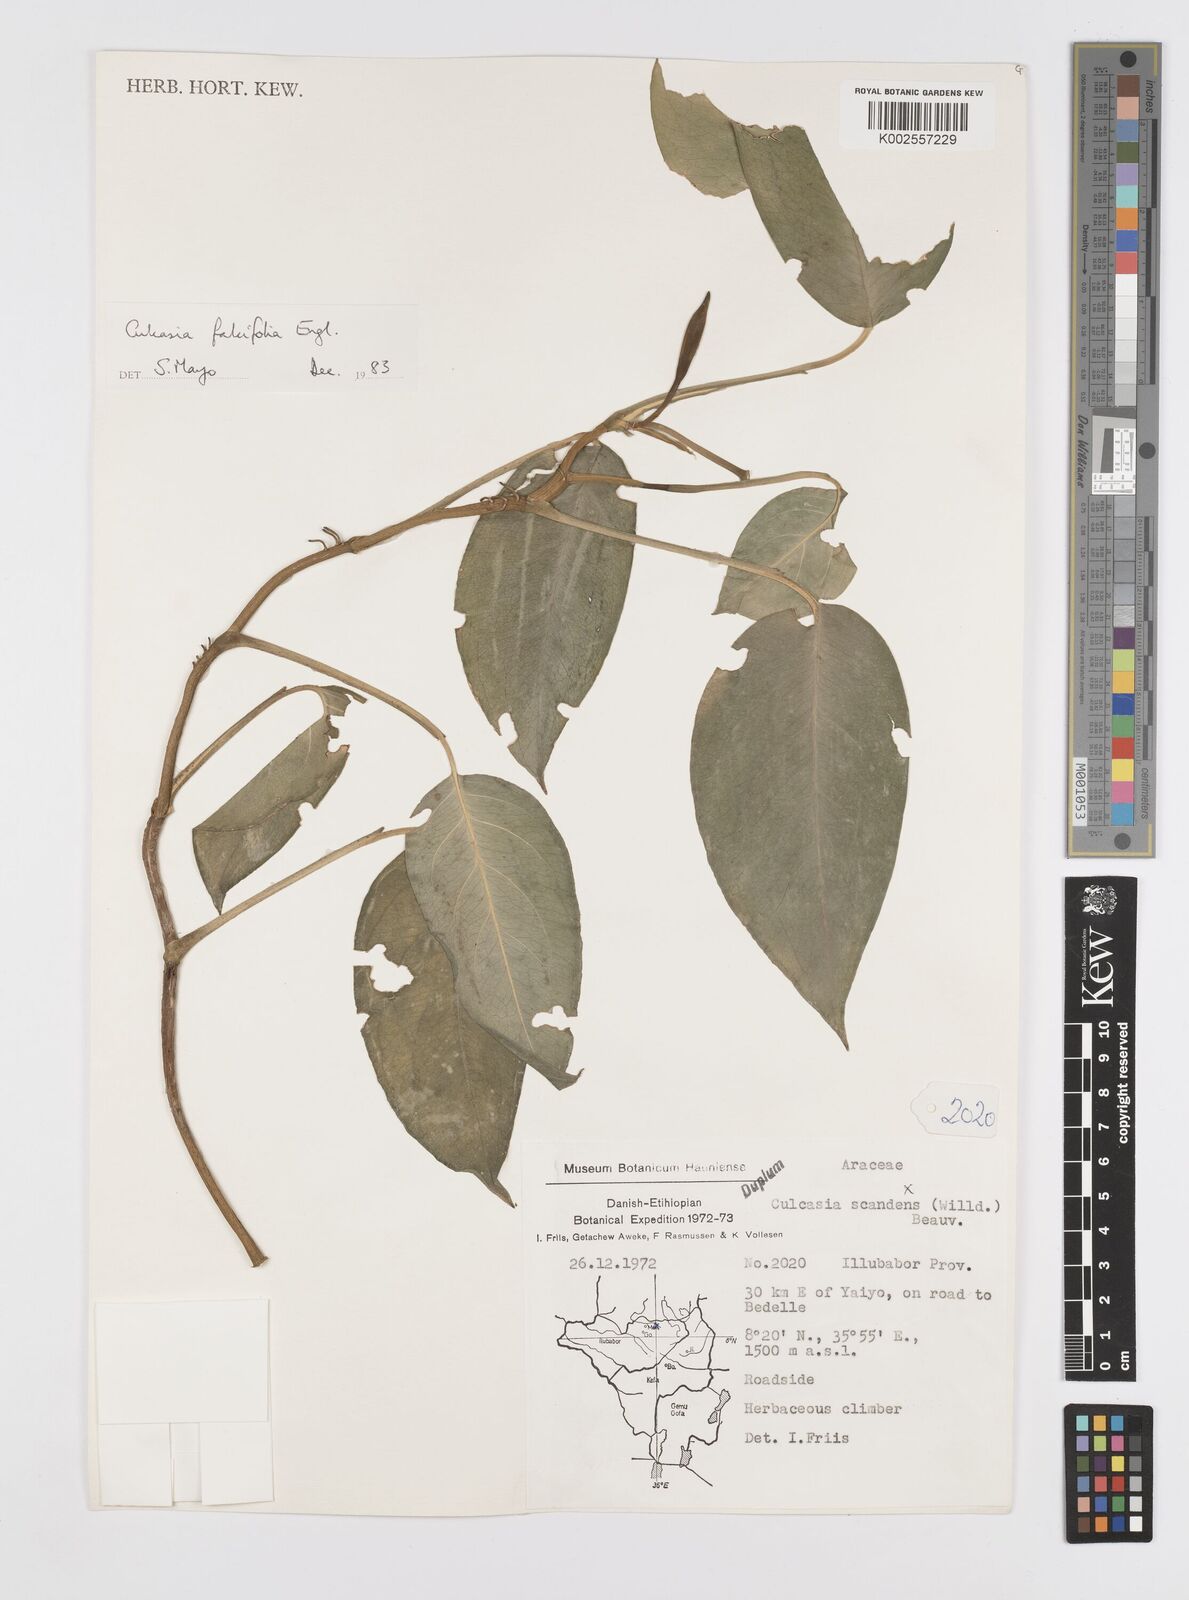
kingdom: Plantae
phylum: Tracheophyta
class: Liliopsida
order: Alismatales
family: Araceae
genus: Culcasia
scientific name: Culcasia falcifolia
